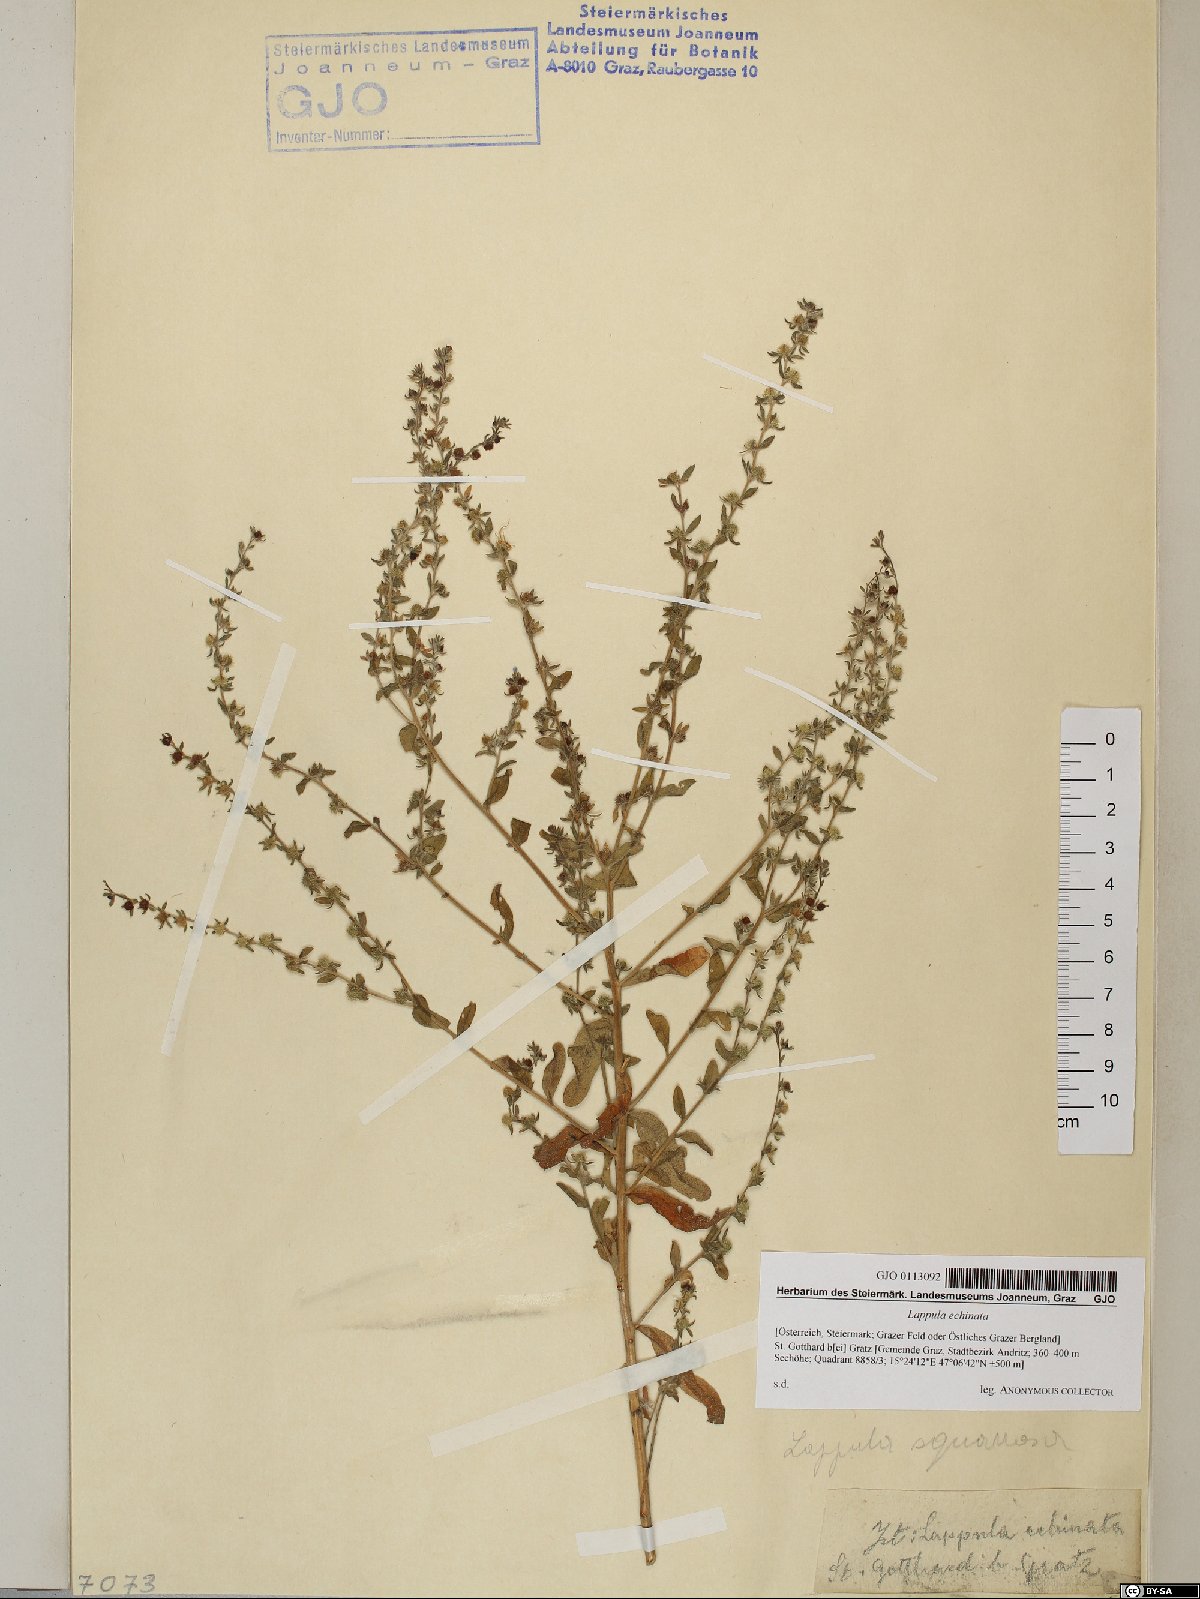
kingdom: Plantae
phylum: Tracheophyta
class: Magnoliopsida
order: Boraginales
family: Boraginaceae
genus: Lappula
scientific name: Lappula squarrosa
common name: European stickseed
